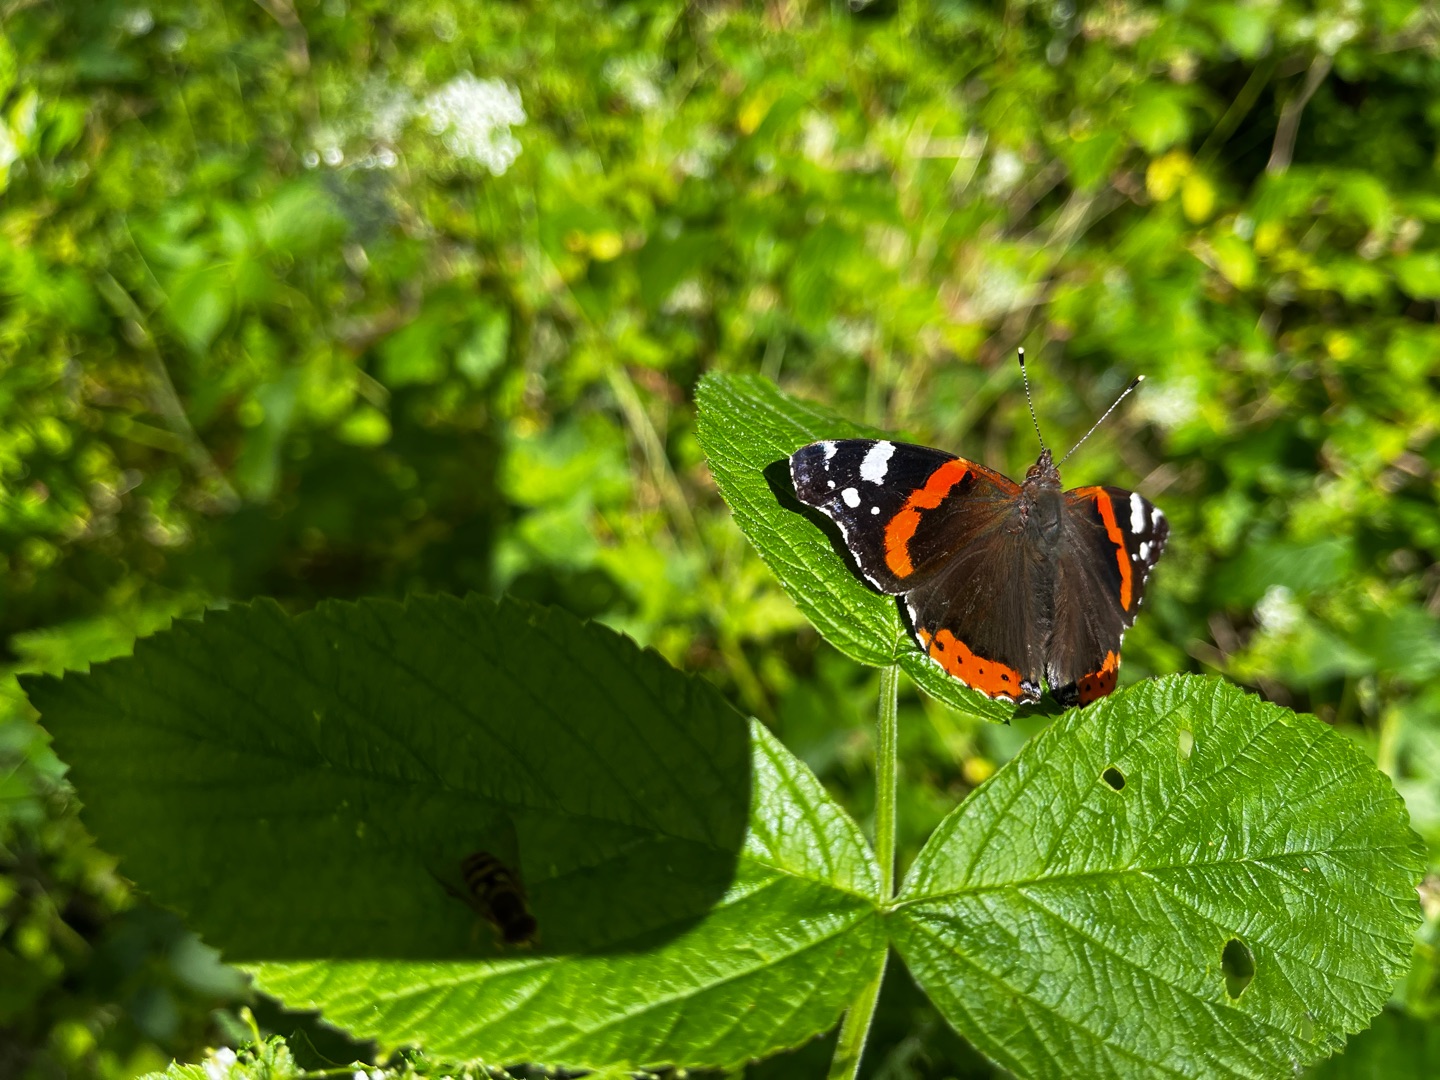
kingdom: Animalia
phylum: Arthropoda
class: Insecta
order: Lepidoptera
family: Nymphalidae
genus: Vanessa
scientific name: Vanessa atalanta
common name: Admiral
